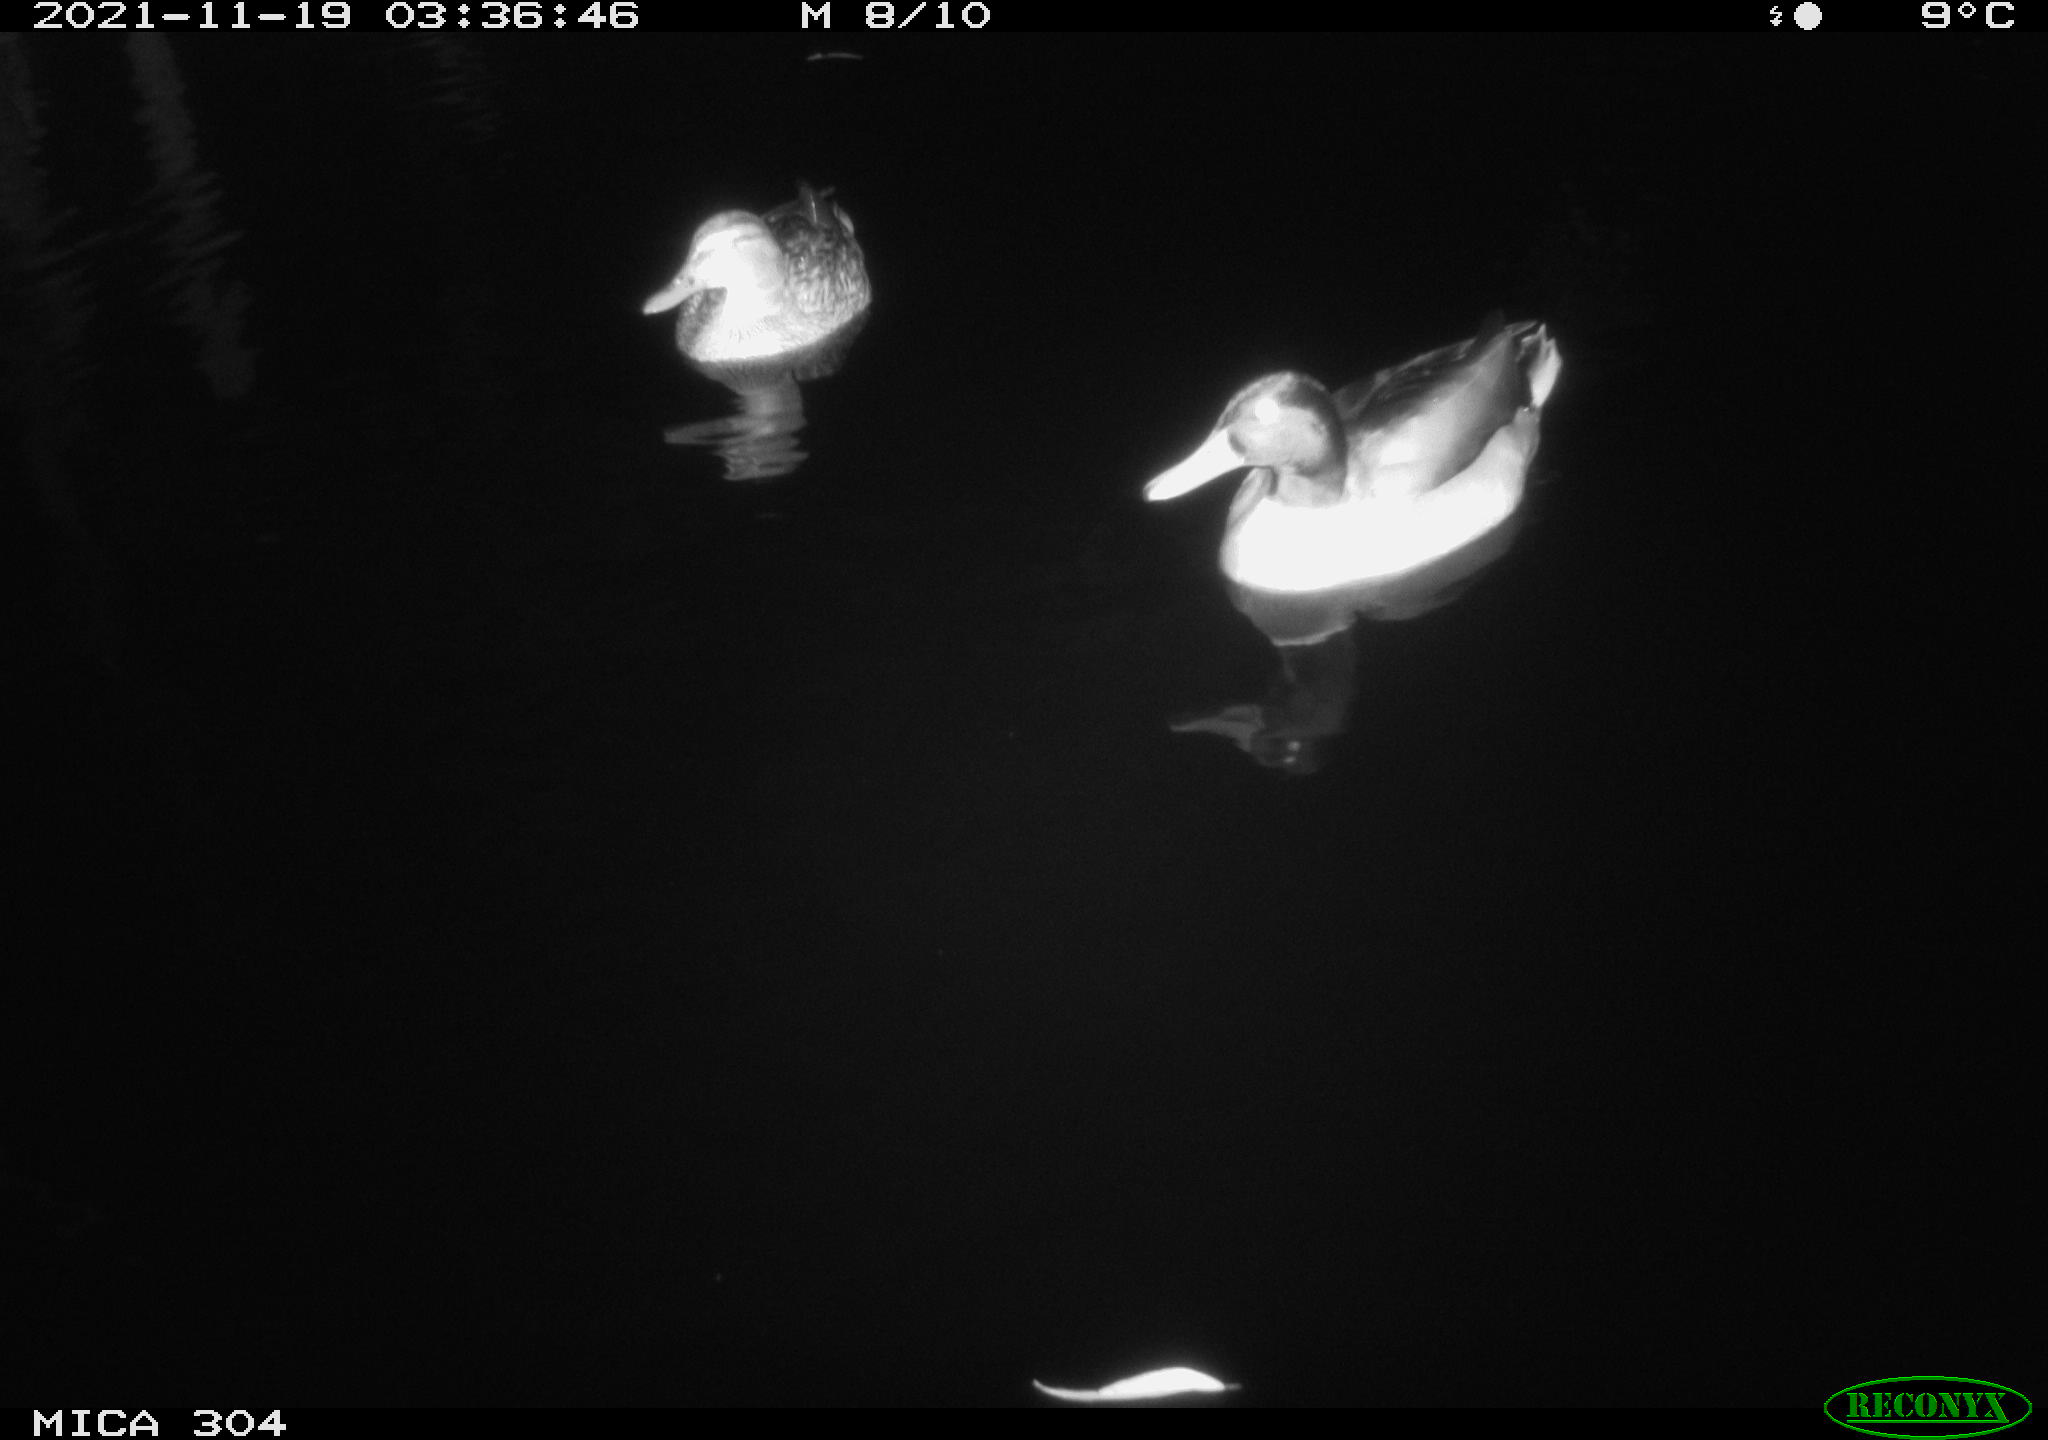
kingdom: Animalia
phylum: Chordata
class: Aves
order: Anseriformes
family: Anatidae
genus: Anas
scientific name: Anas platyrhynchos
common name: Mallard
